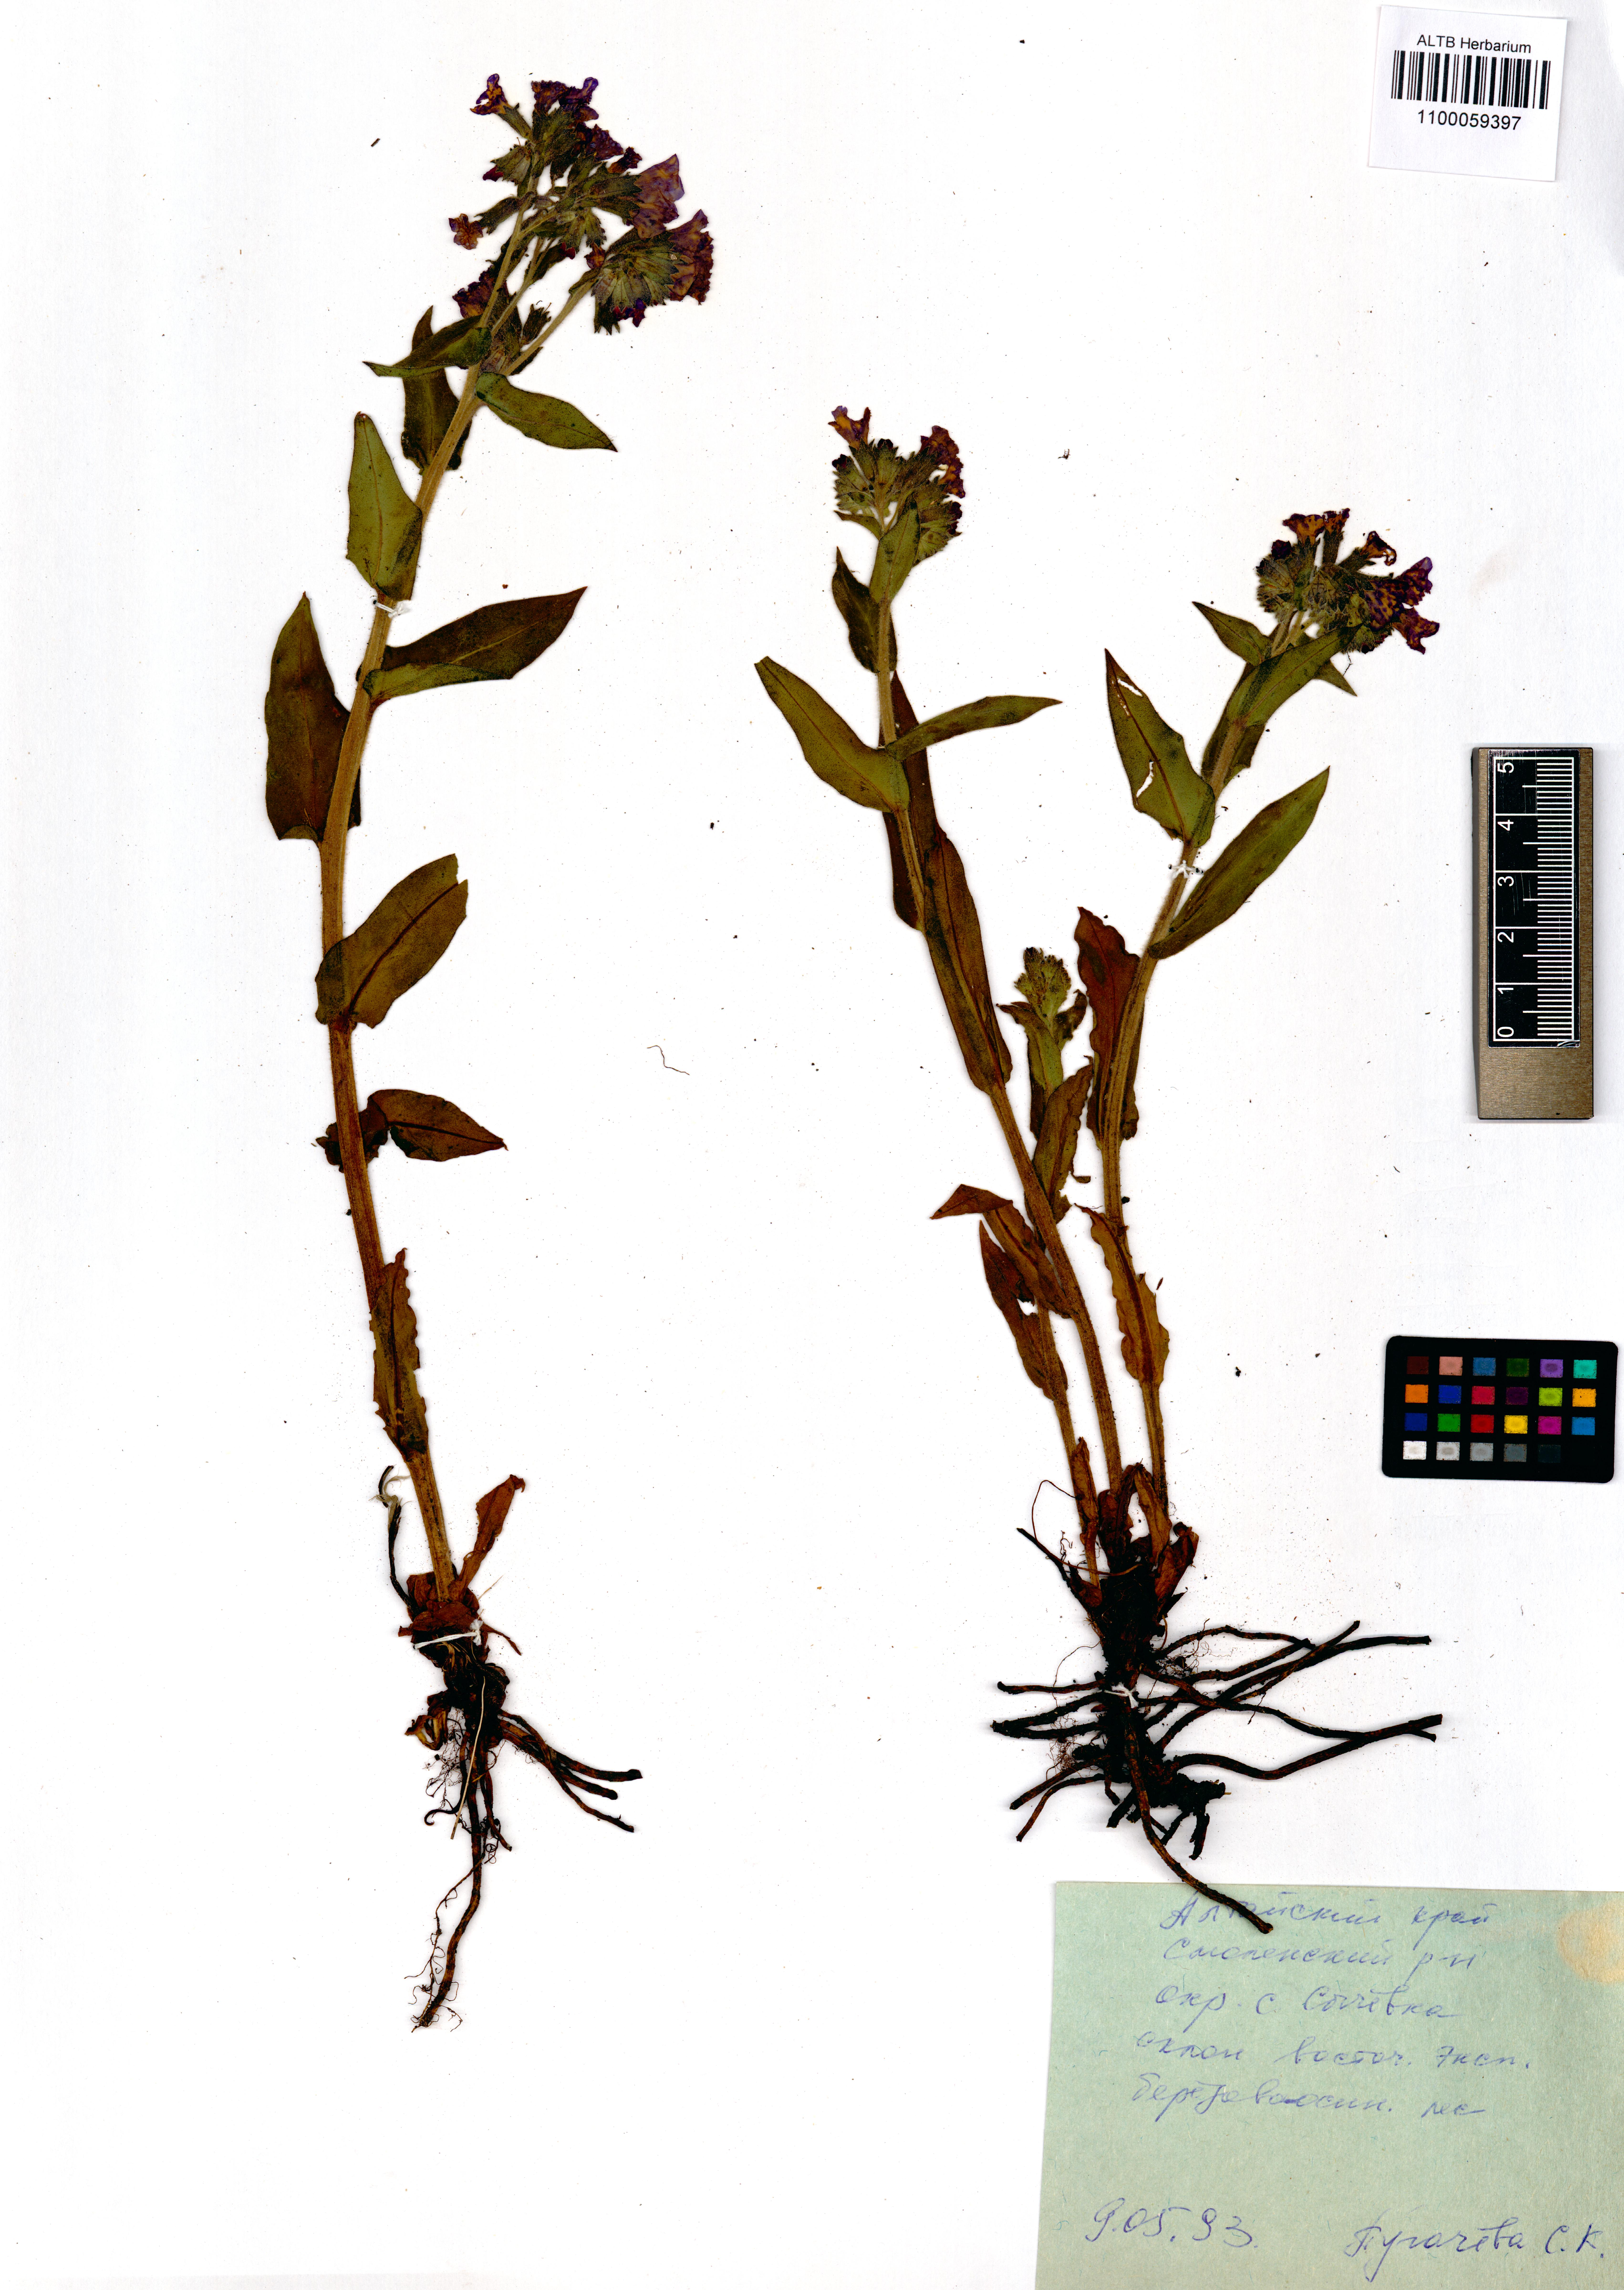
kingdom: Plantae
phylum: Tracheophyta
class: Magnoliopsida
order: Boraginales
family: Boraginaceae
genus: Pulmonaria
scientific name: Pulmonaria mollis
